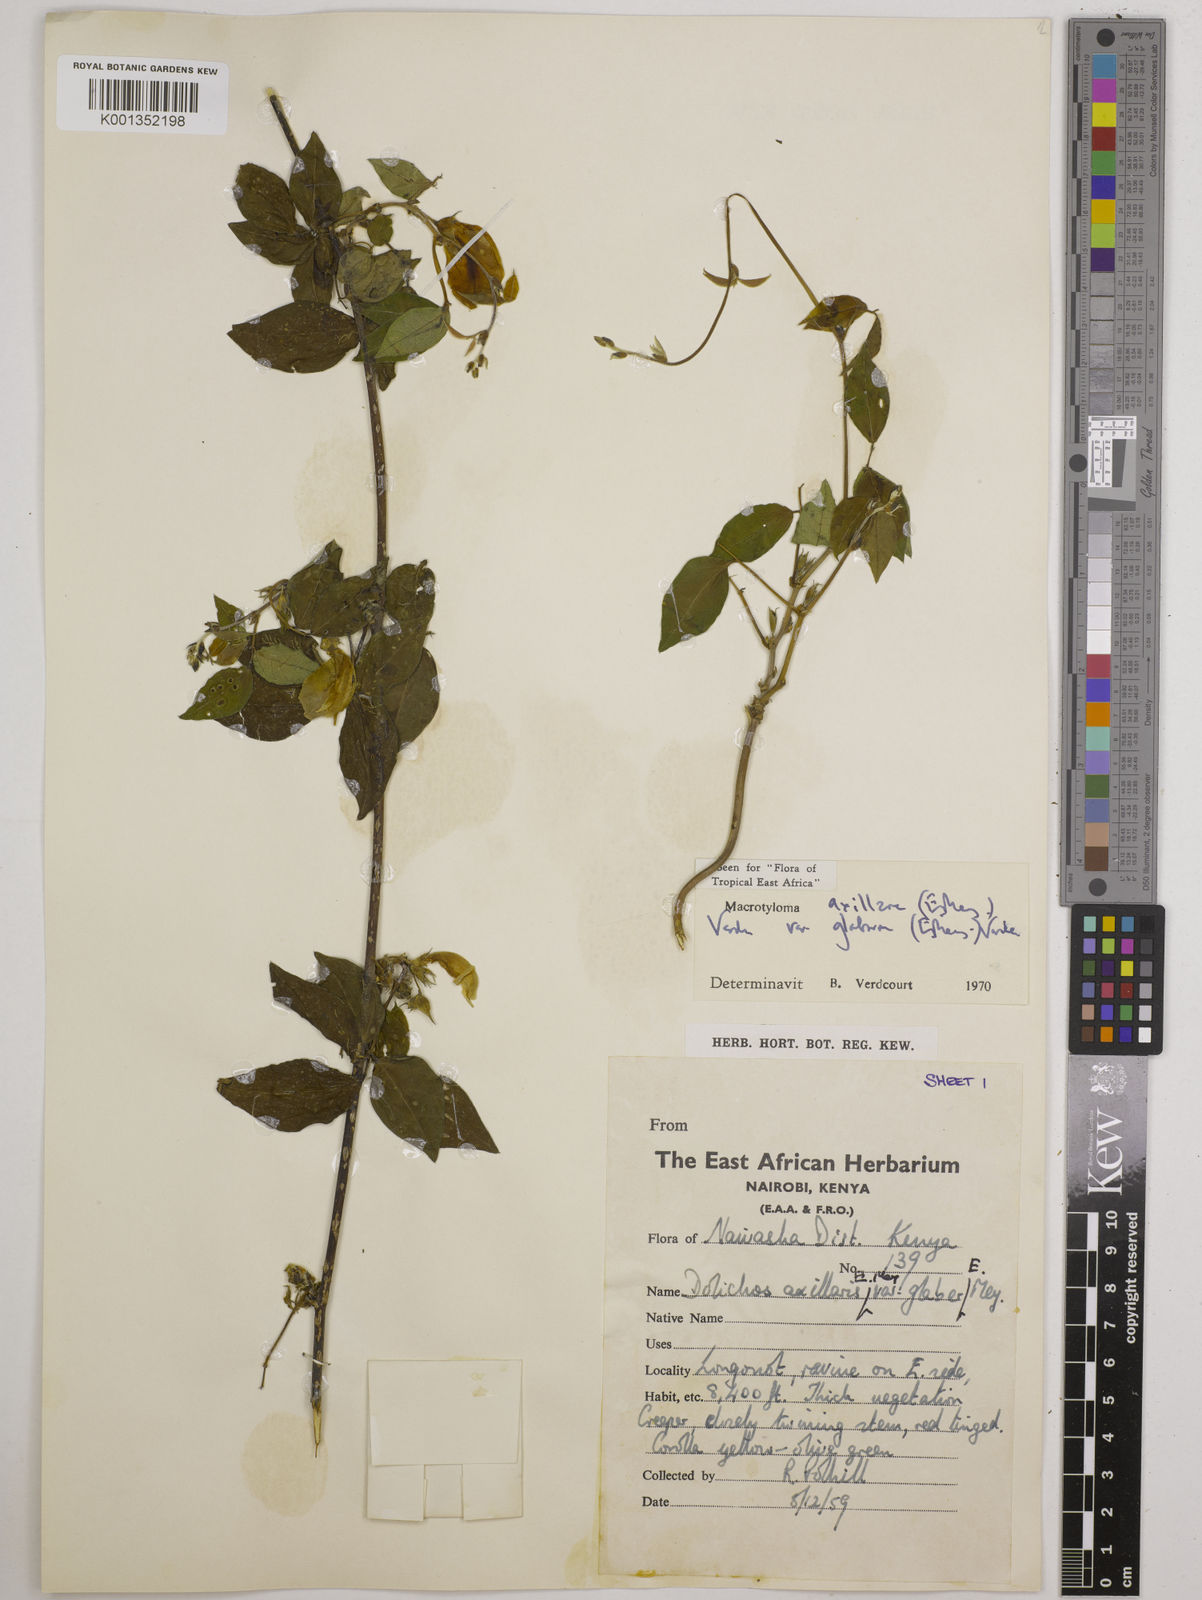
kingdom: Plantae
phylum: Tracheophyta
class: Magnoliopsida
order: Fabales
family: Fabaceae
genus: Macrotyloma
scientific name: Macrotyloma
